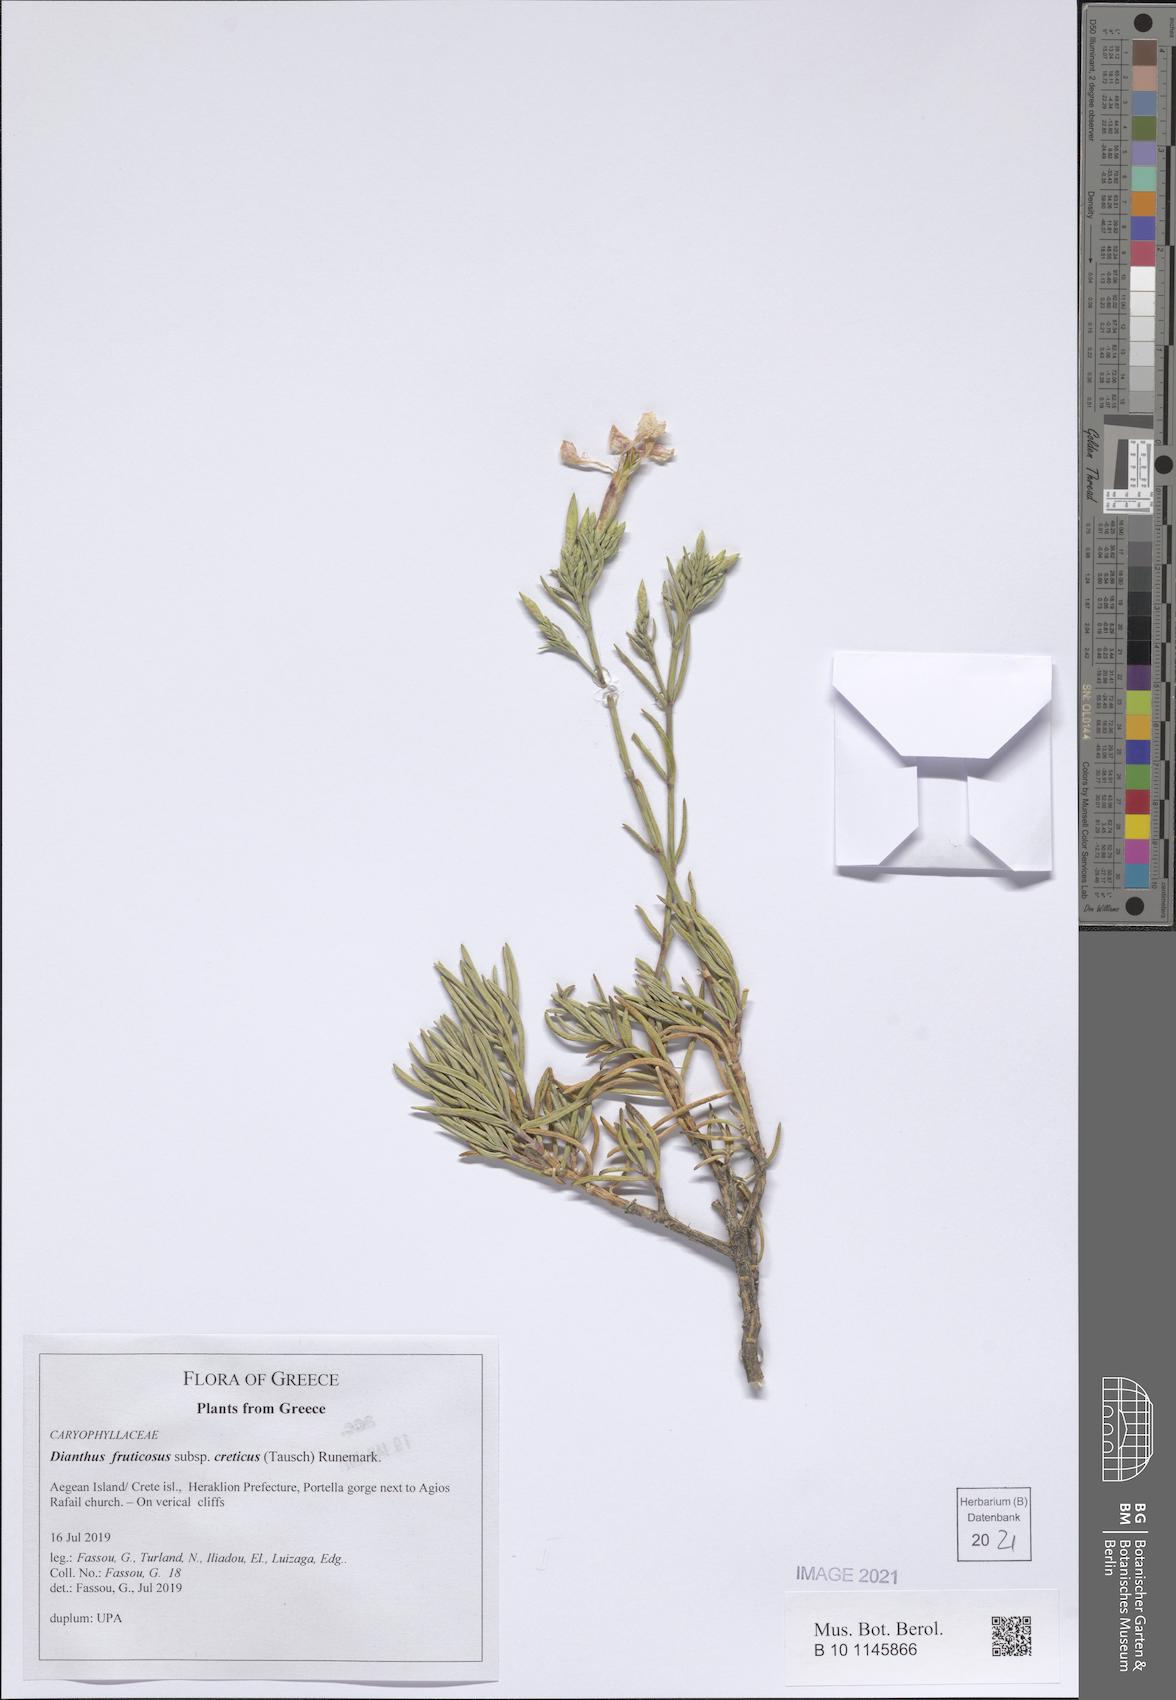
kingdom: Plantae
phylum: Tracheophyta
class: Magnoliopsida
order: Caryophyllales
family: Caryophyllaceae
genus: Dianthus
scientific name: Dianthus fruticosus
